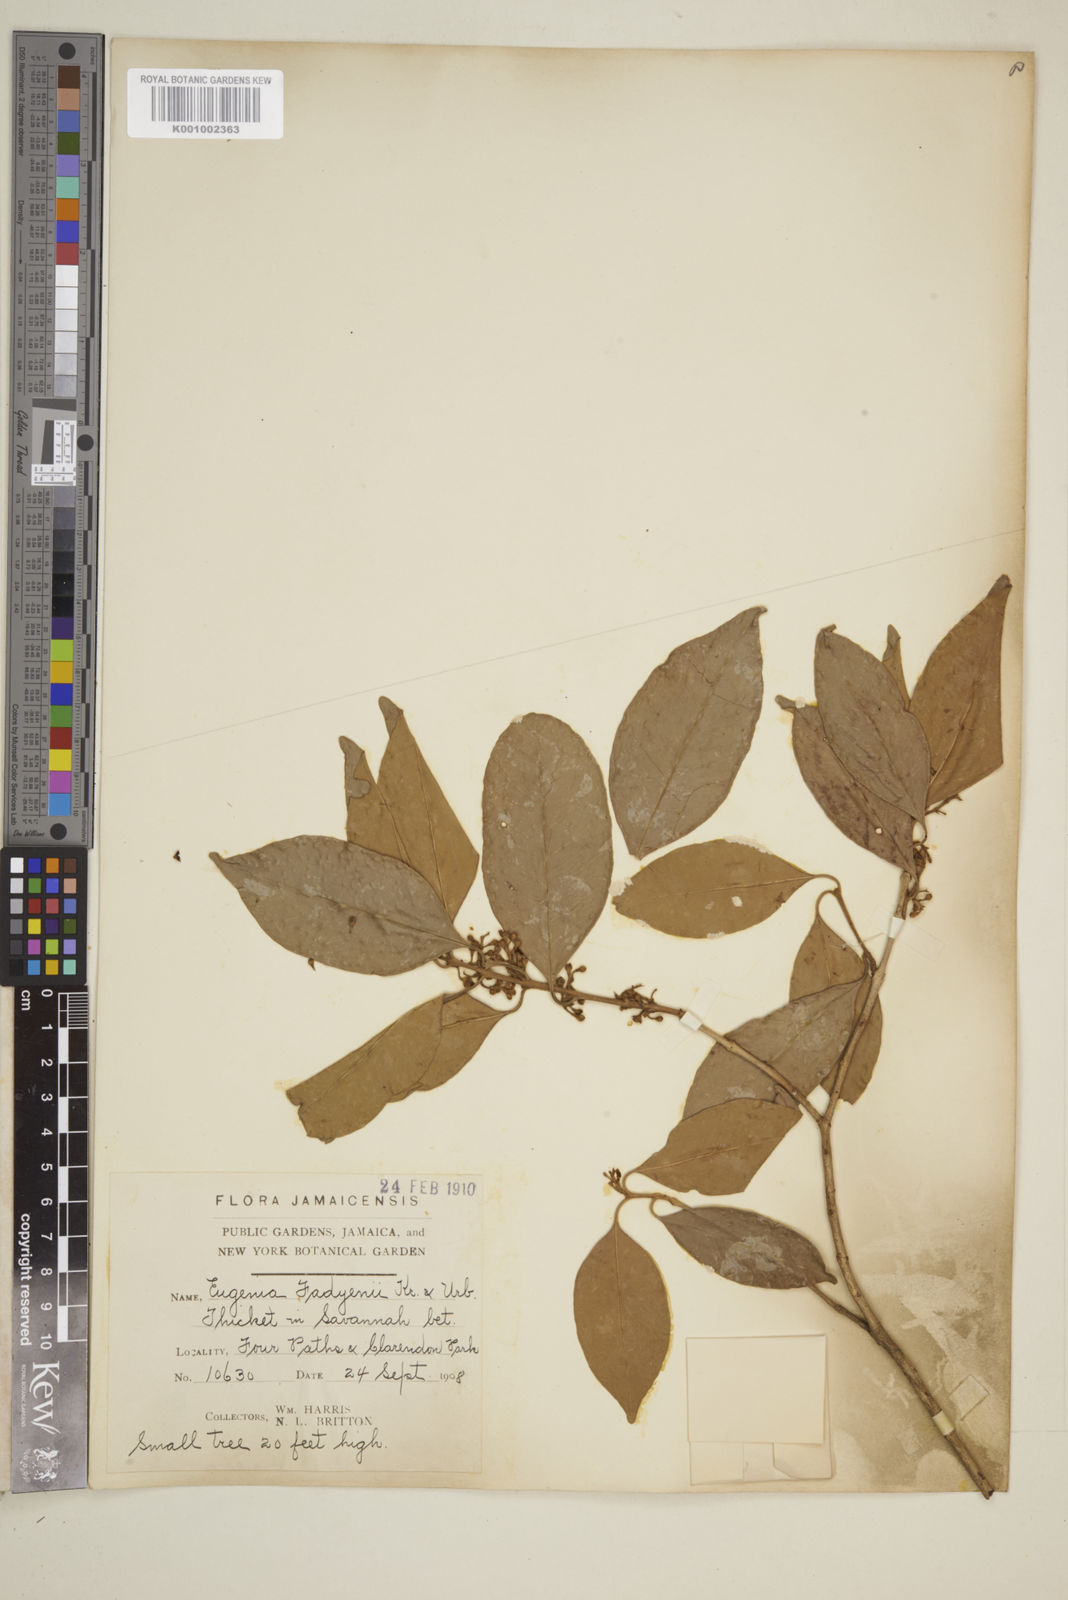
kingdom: Plantae
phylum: Tracheophyta
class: Magnoliopsida
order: Myrtales
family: Myrtaceae
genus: Eugenia
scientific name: Eugenia aeruginea
